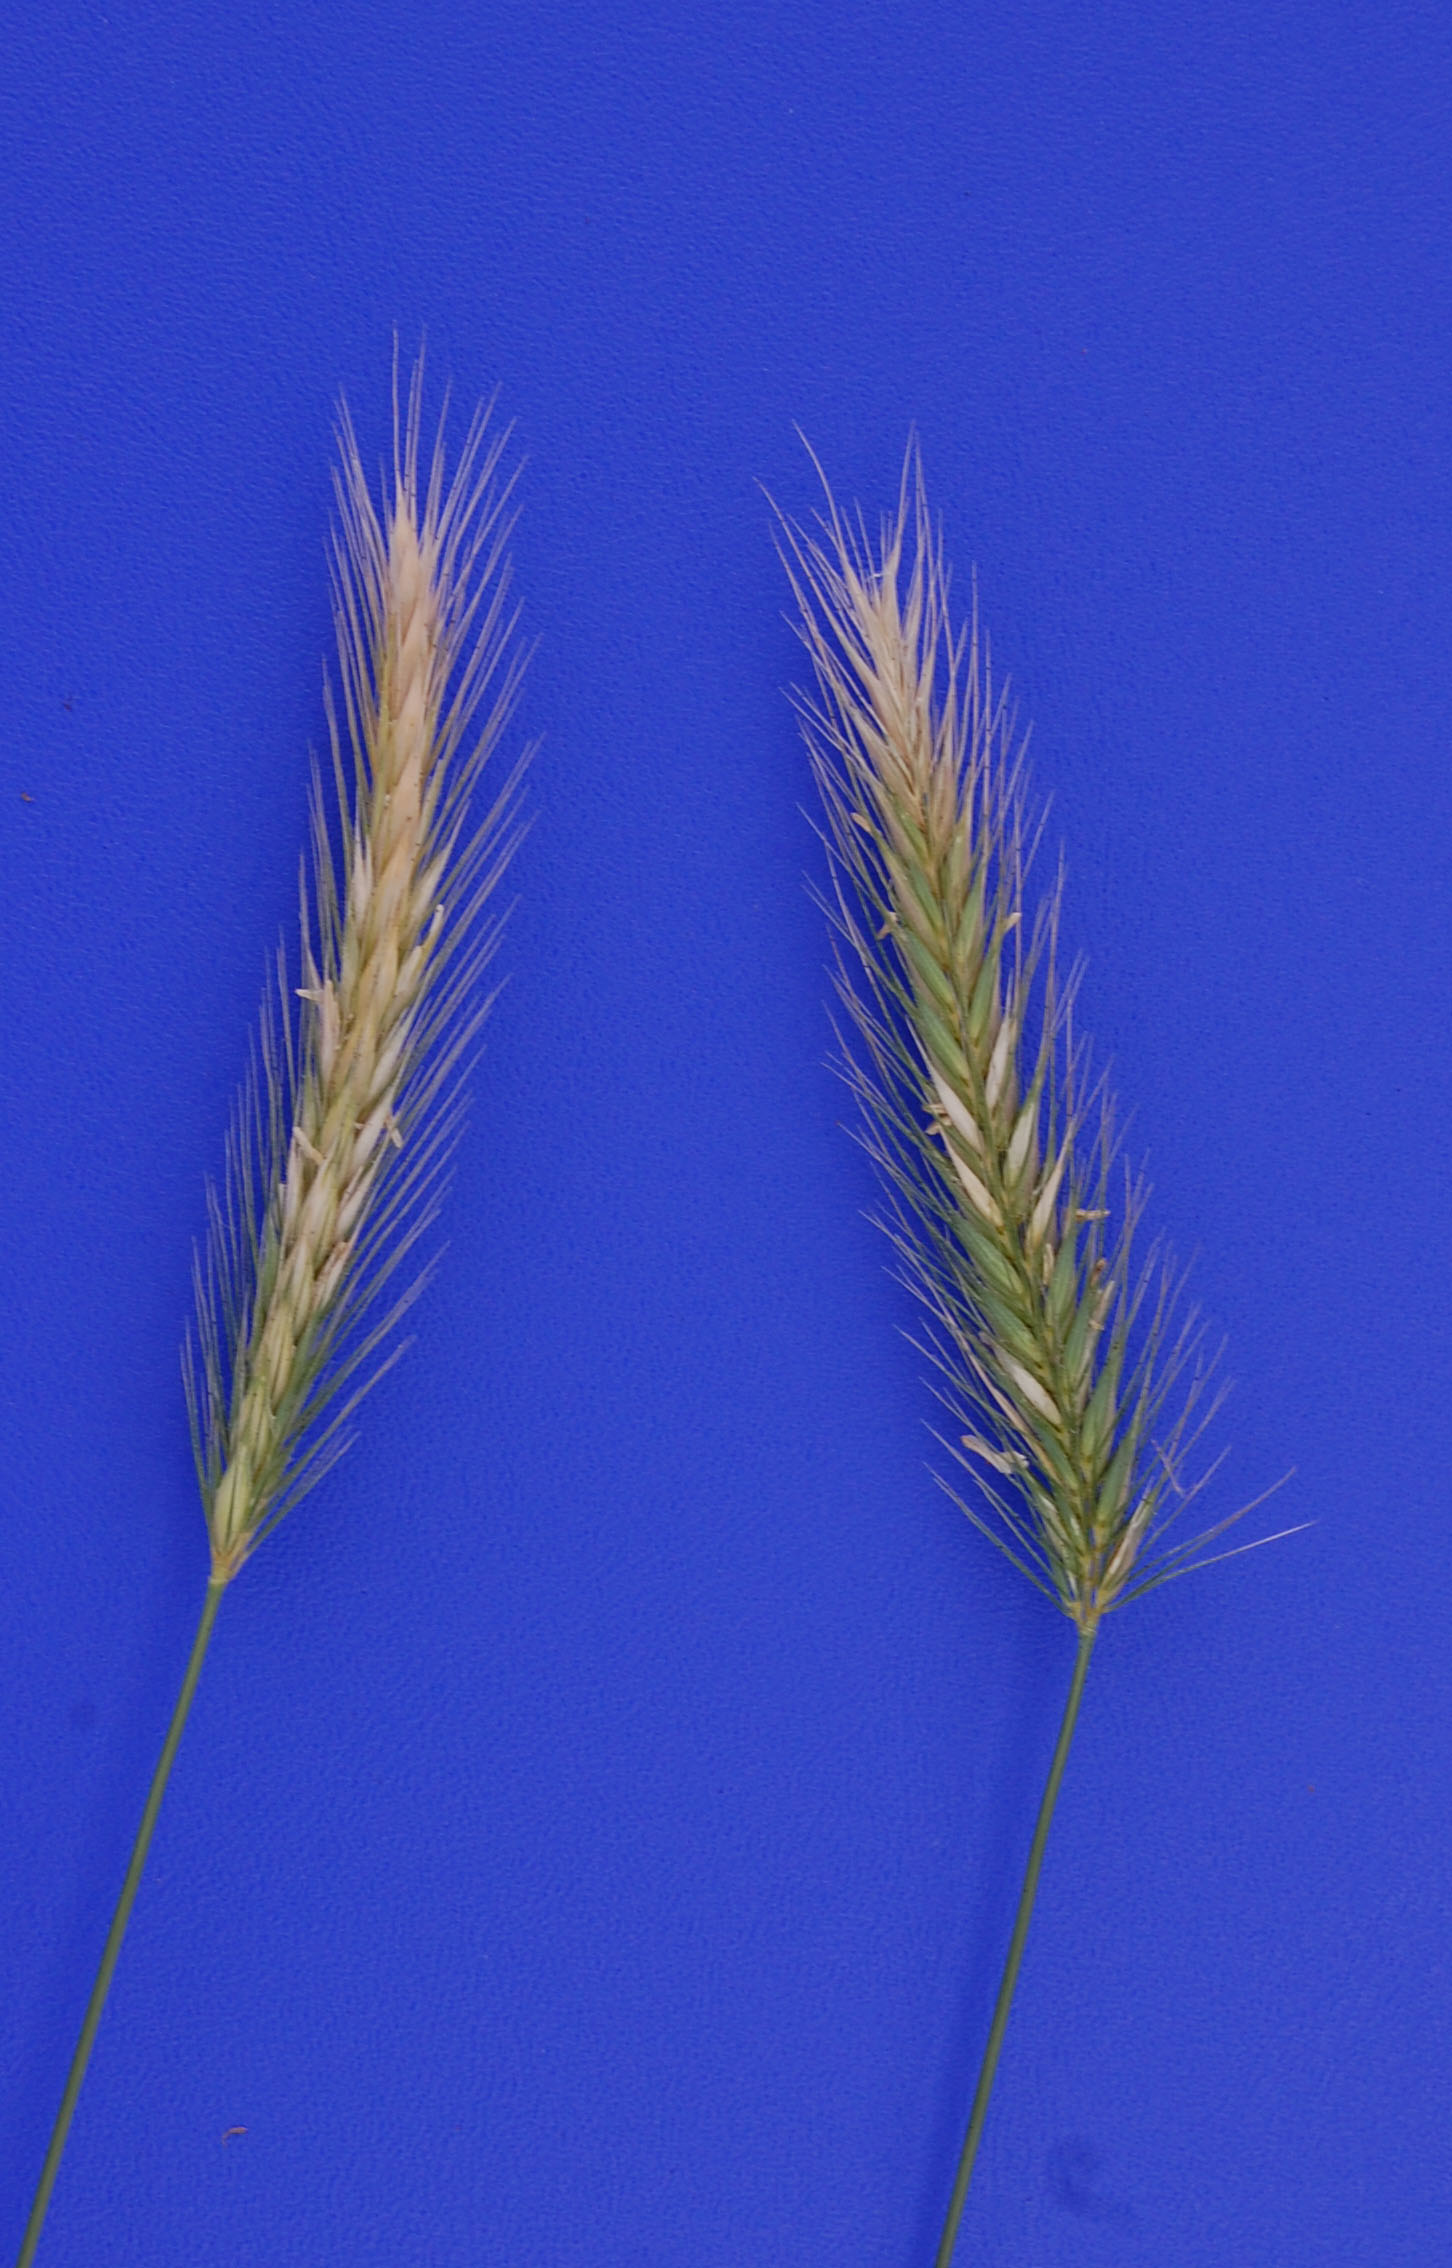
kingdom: Plantae
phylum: Tracheophyta
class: Liliopsida
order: Poales
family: Poaceae
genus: Hordeum
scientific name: Hordeum secalinum
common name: Meadow barley
